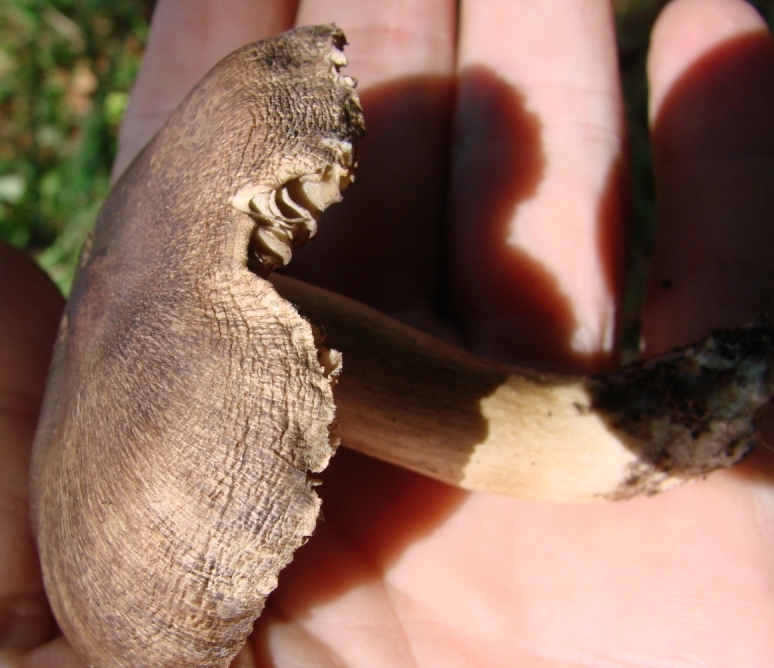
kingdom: Fungi
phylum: Basidiomycota
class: Agaricomycetes
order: Agaricales
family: Tricholomataceae
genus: Tricholoma
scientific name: Tricholoma sciodes
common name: stribet ridderhat
